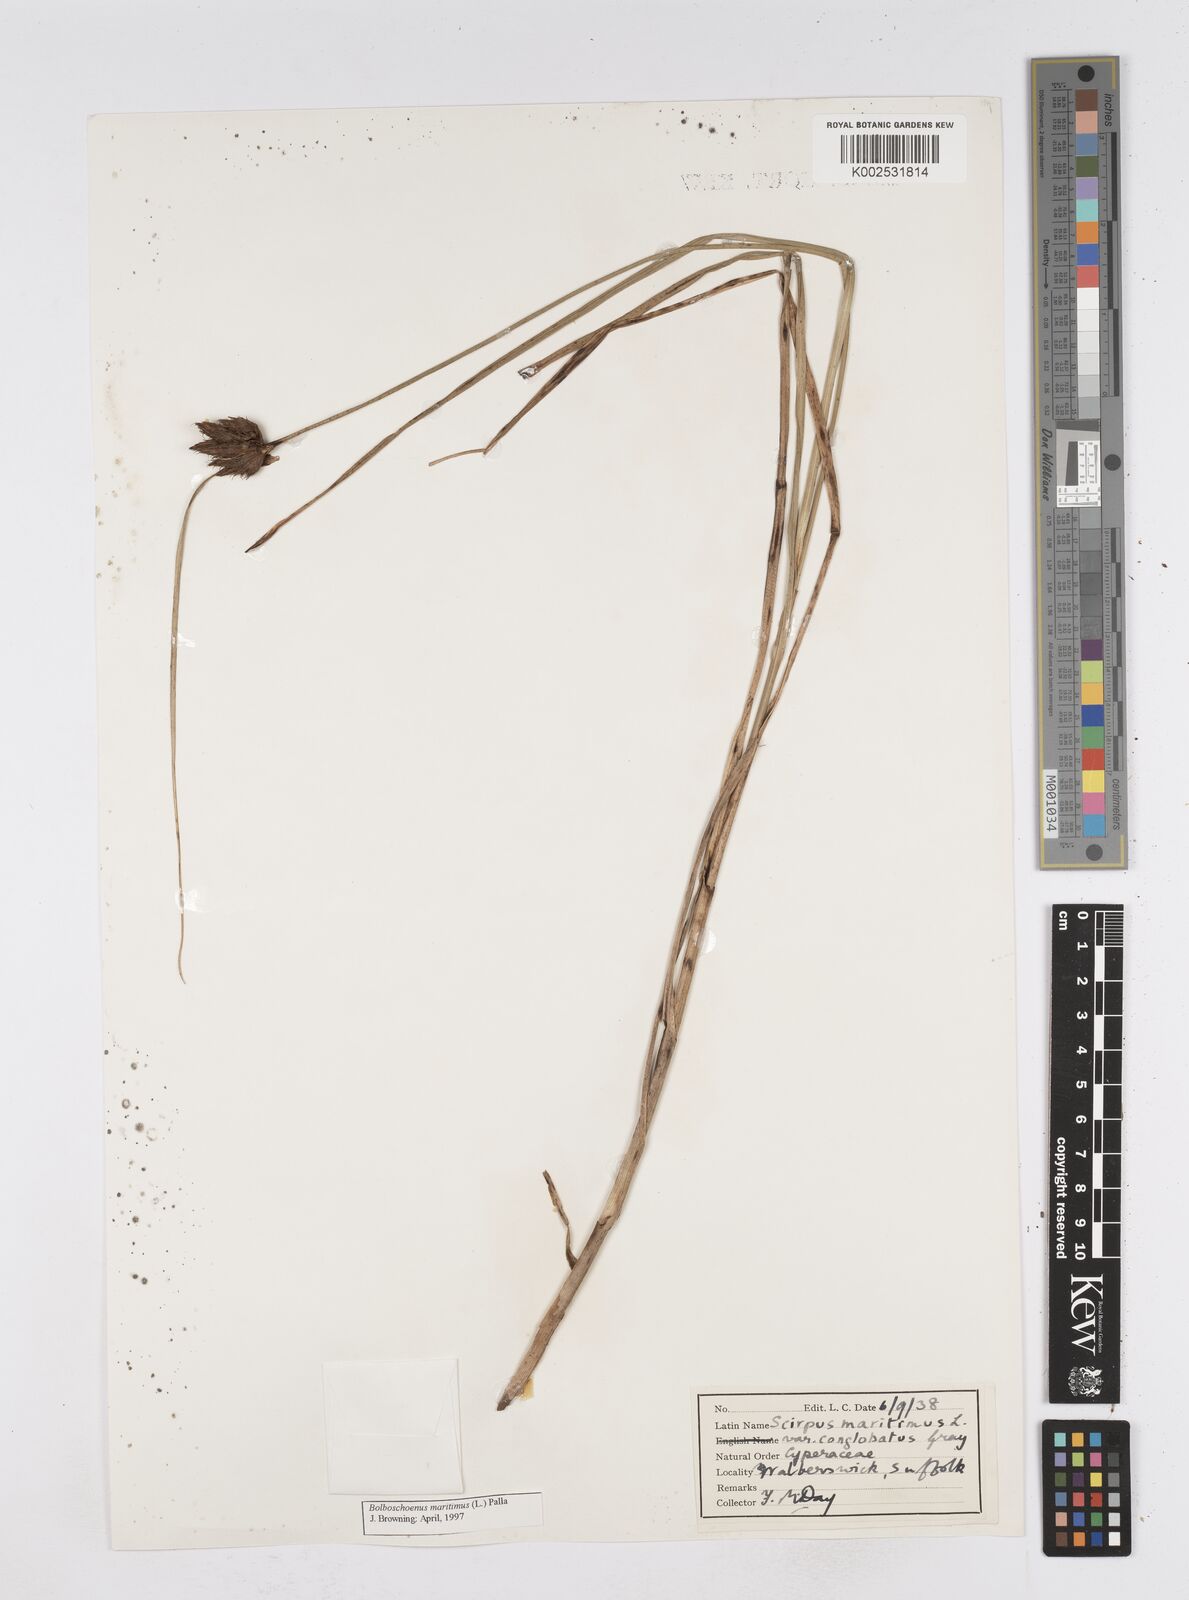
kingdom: Plantae
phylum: Tracheophyta
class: Liliopsida
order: Poales
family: Cyperaceae
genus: Bolboschoenus
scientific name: Bolboschoenus maritimus
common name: Sea club-rush
